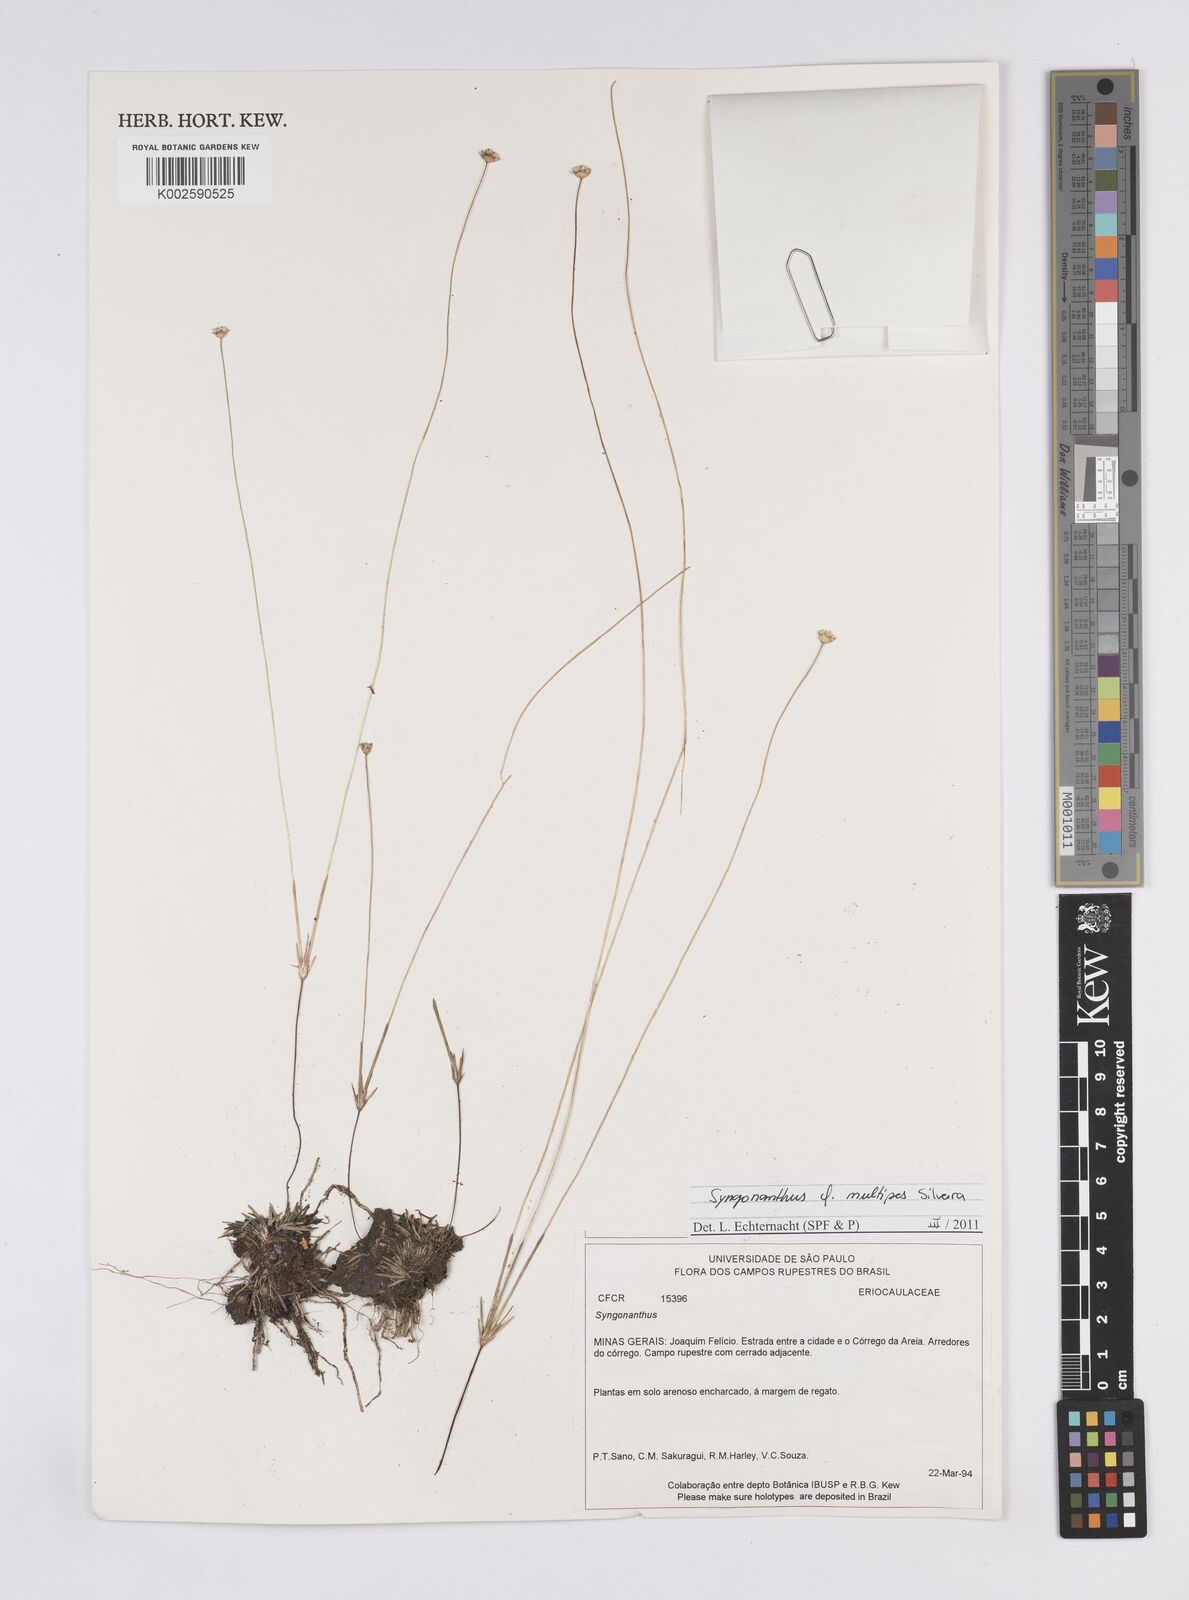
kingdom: Plantae
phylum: Tracheophyta
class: Liliopsida
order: Poales
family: Eriocaulaceae
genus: Syngonanthus
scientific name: Syngonanthus multipes
